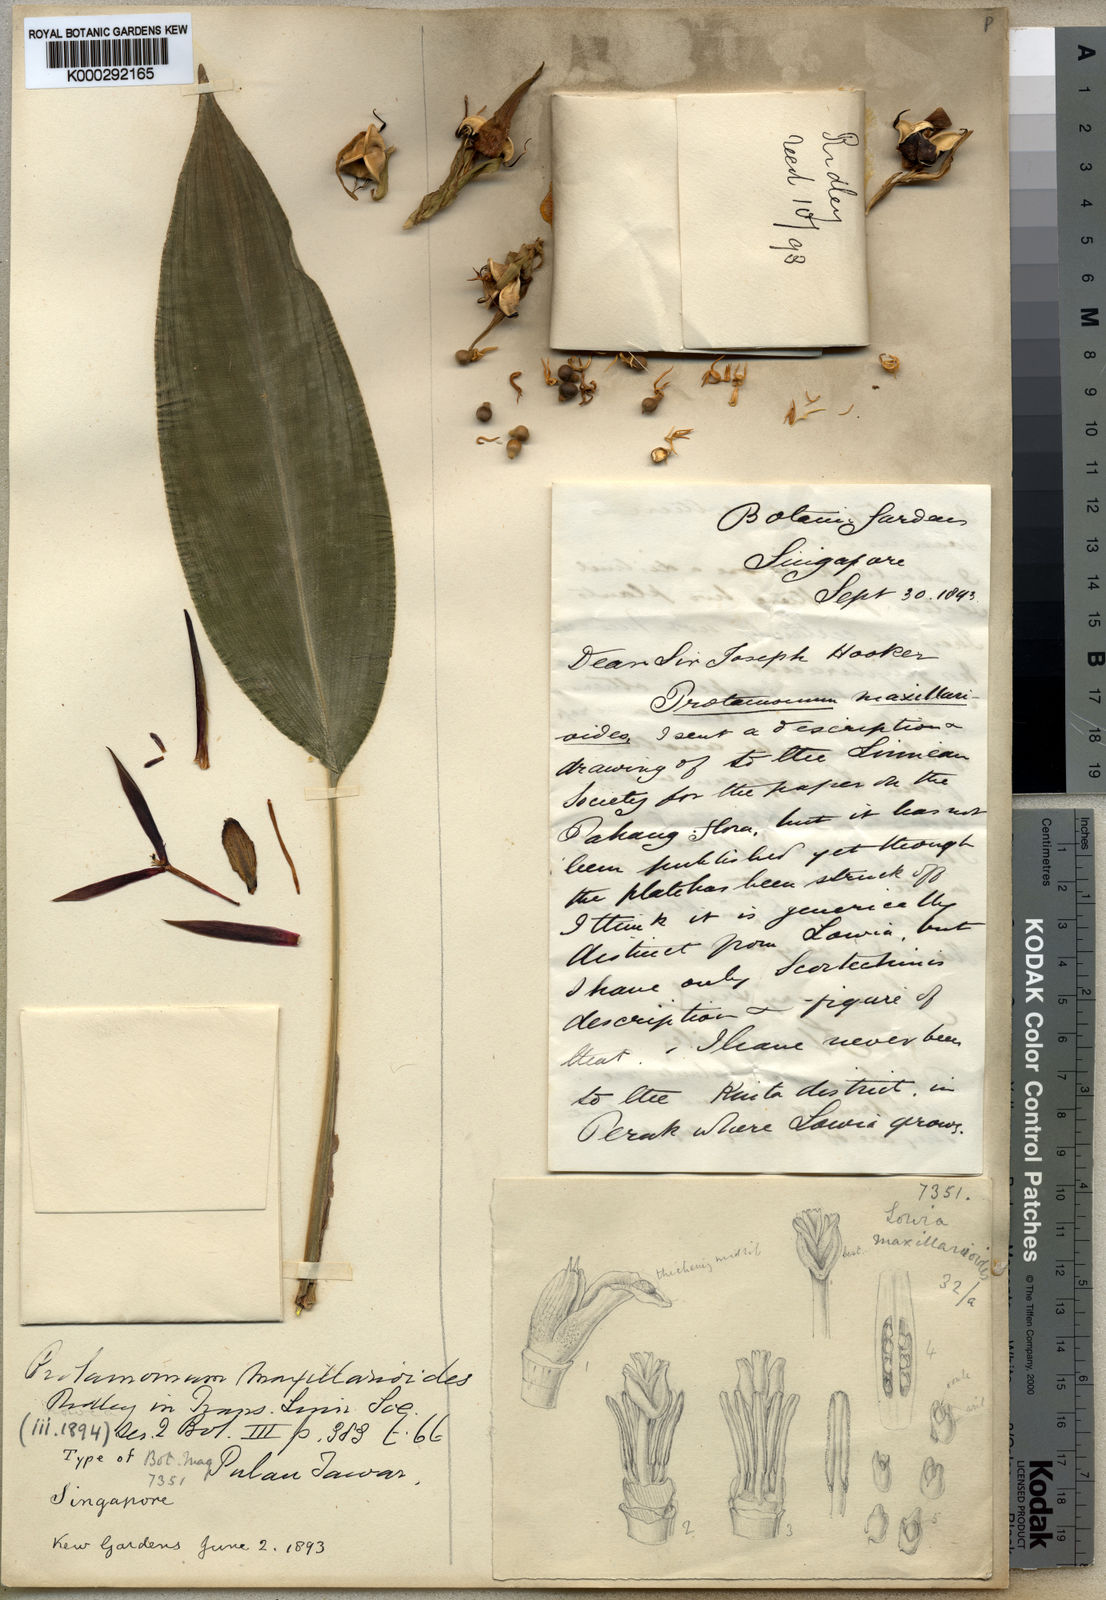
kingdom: Plantae
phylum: Tracheophyta
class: Liliopsida
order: Zingiberales
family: Lowiaceae
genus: Orchidantha
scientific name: Orchidantha maxillarioides
